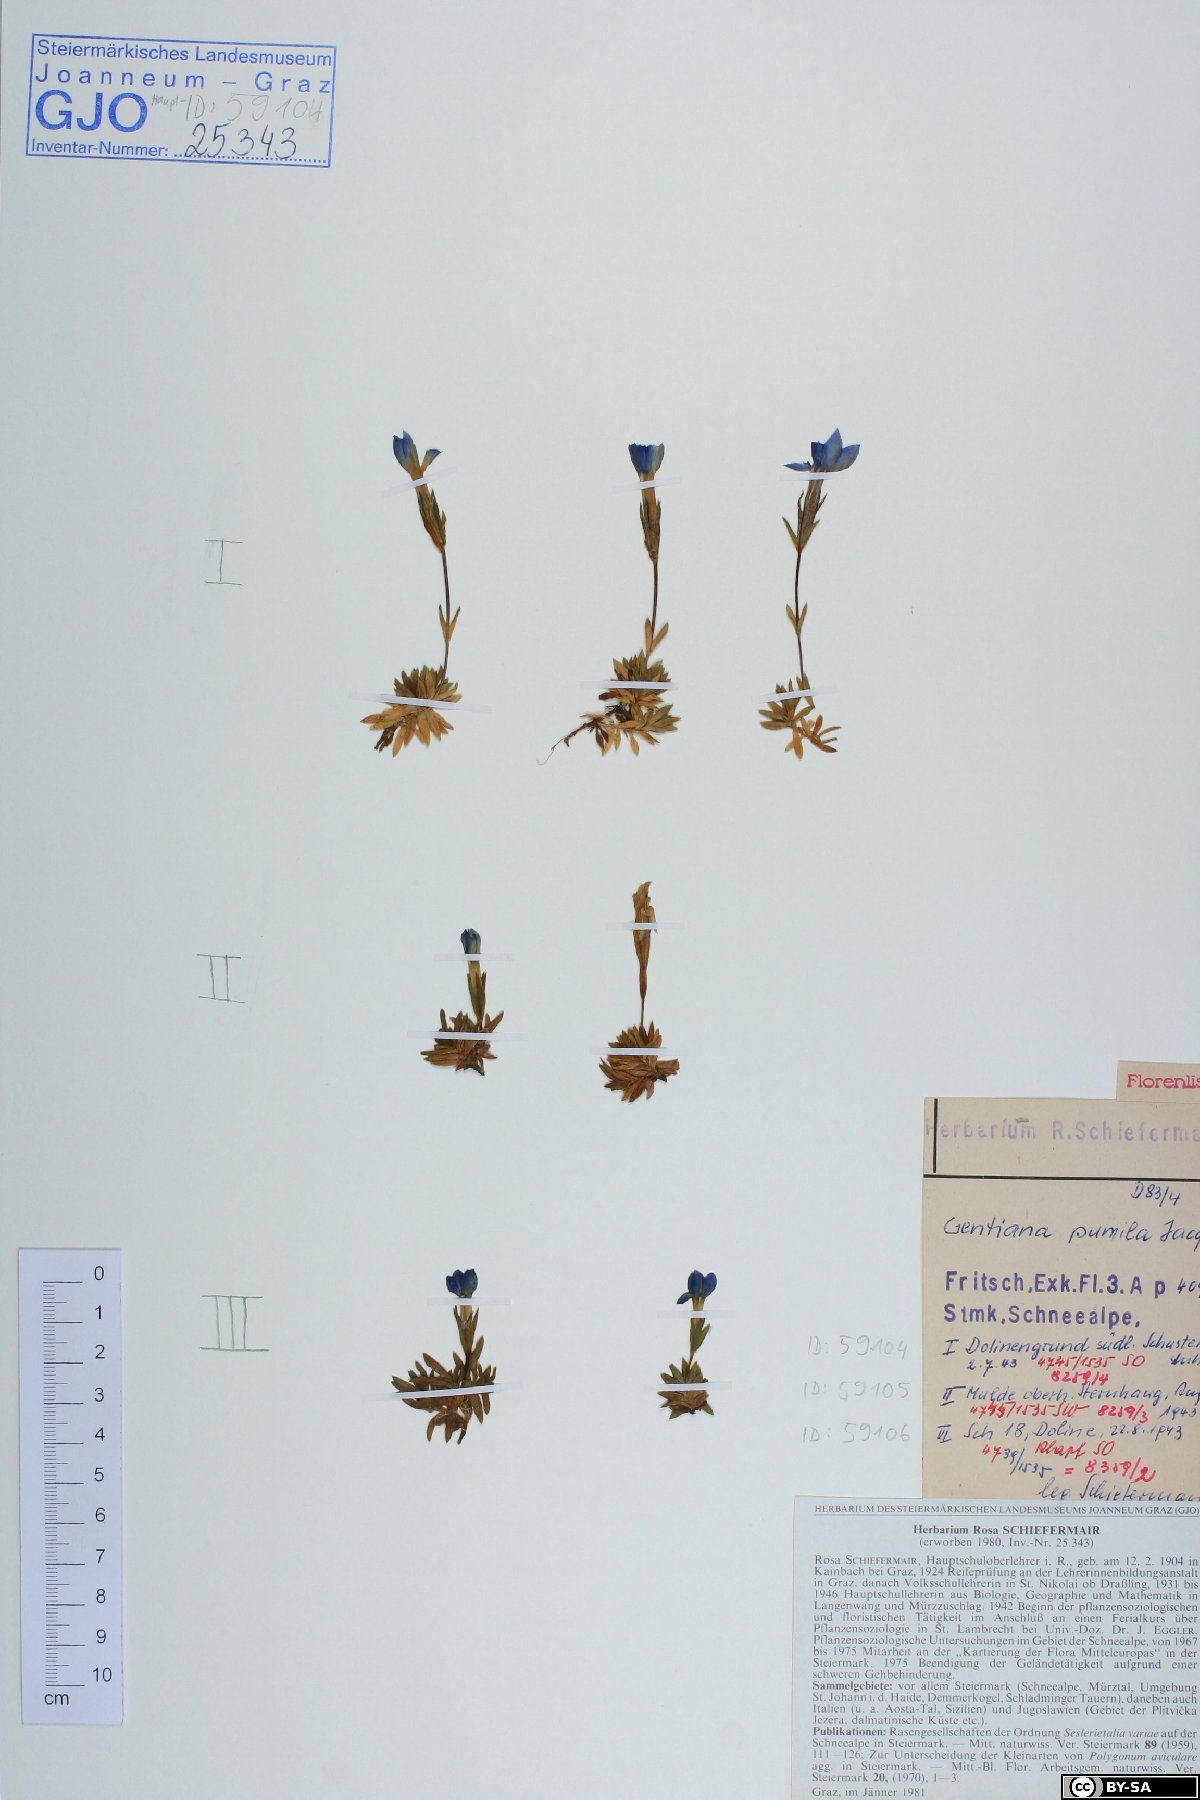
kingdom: Plantae
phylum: Tracheophyta
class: Magnoliopsida
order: Gentianales
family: Gentianaceae
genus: Gentiana
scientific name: Gentiana pumila
